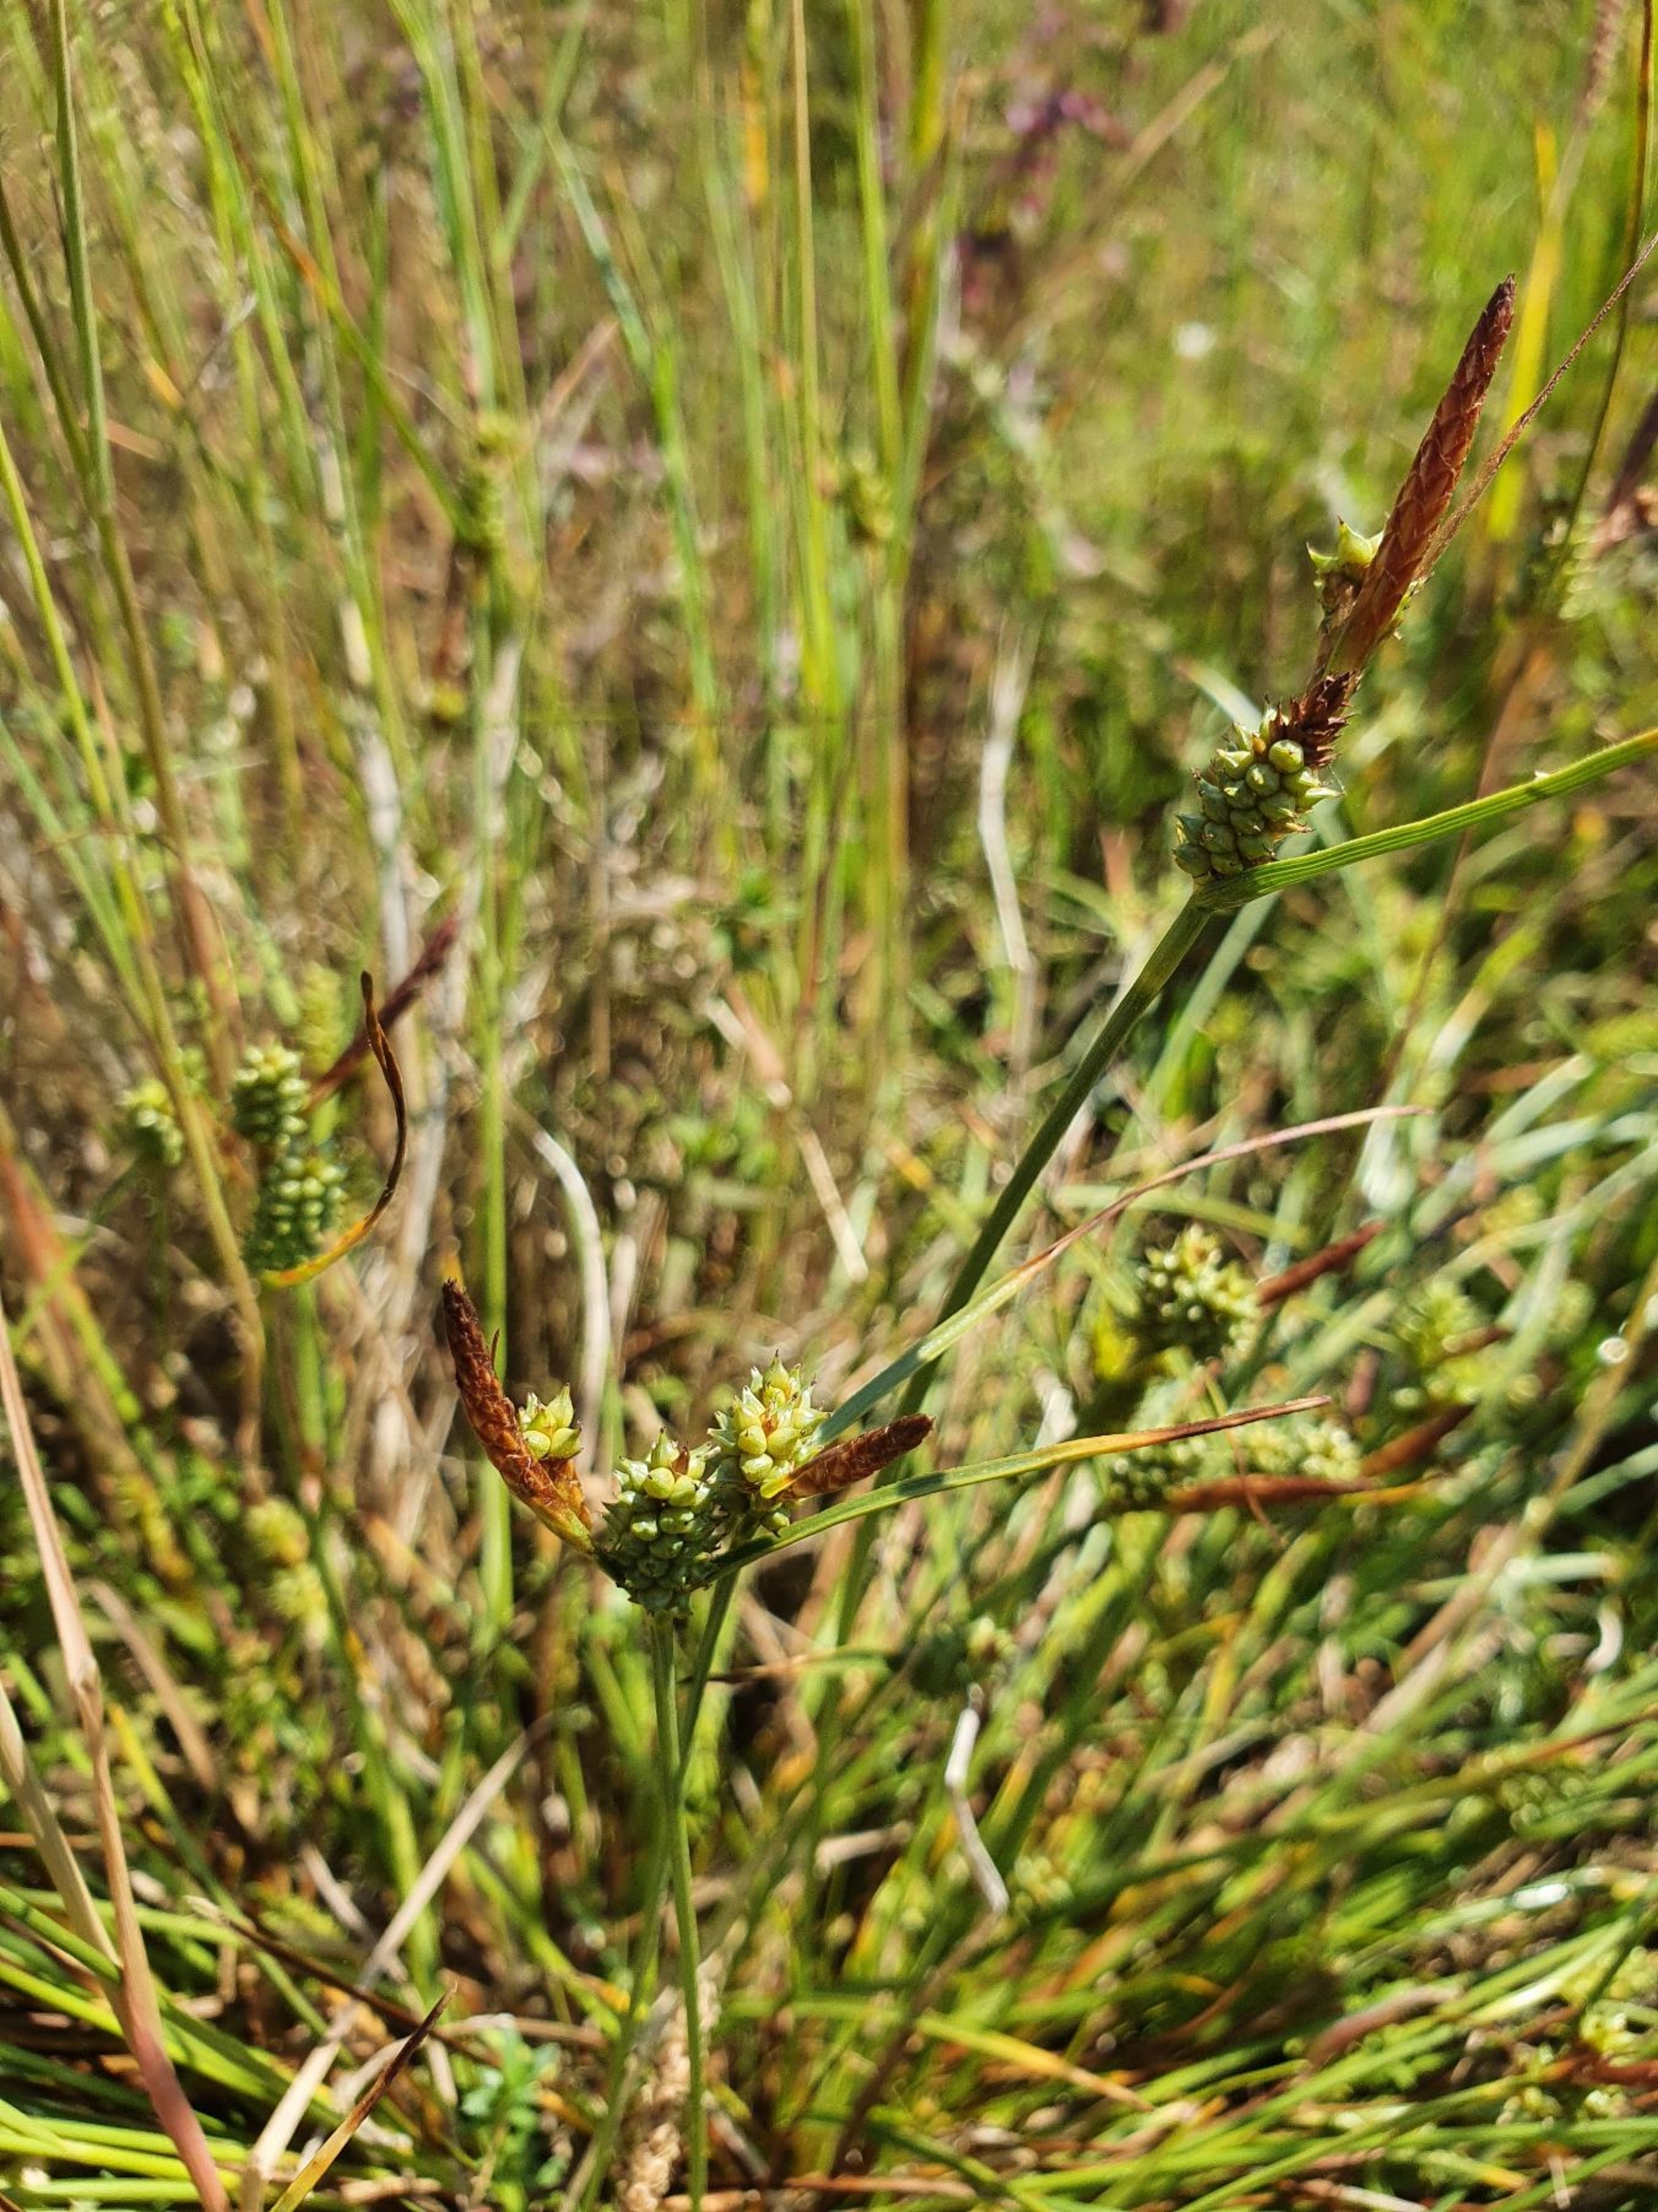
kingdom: Plantae
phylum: Tracheophyta
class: Liliopsida
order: Poales
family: Cyperaceae
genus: Carex
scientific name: Carex extensa
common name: Udspilet star
